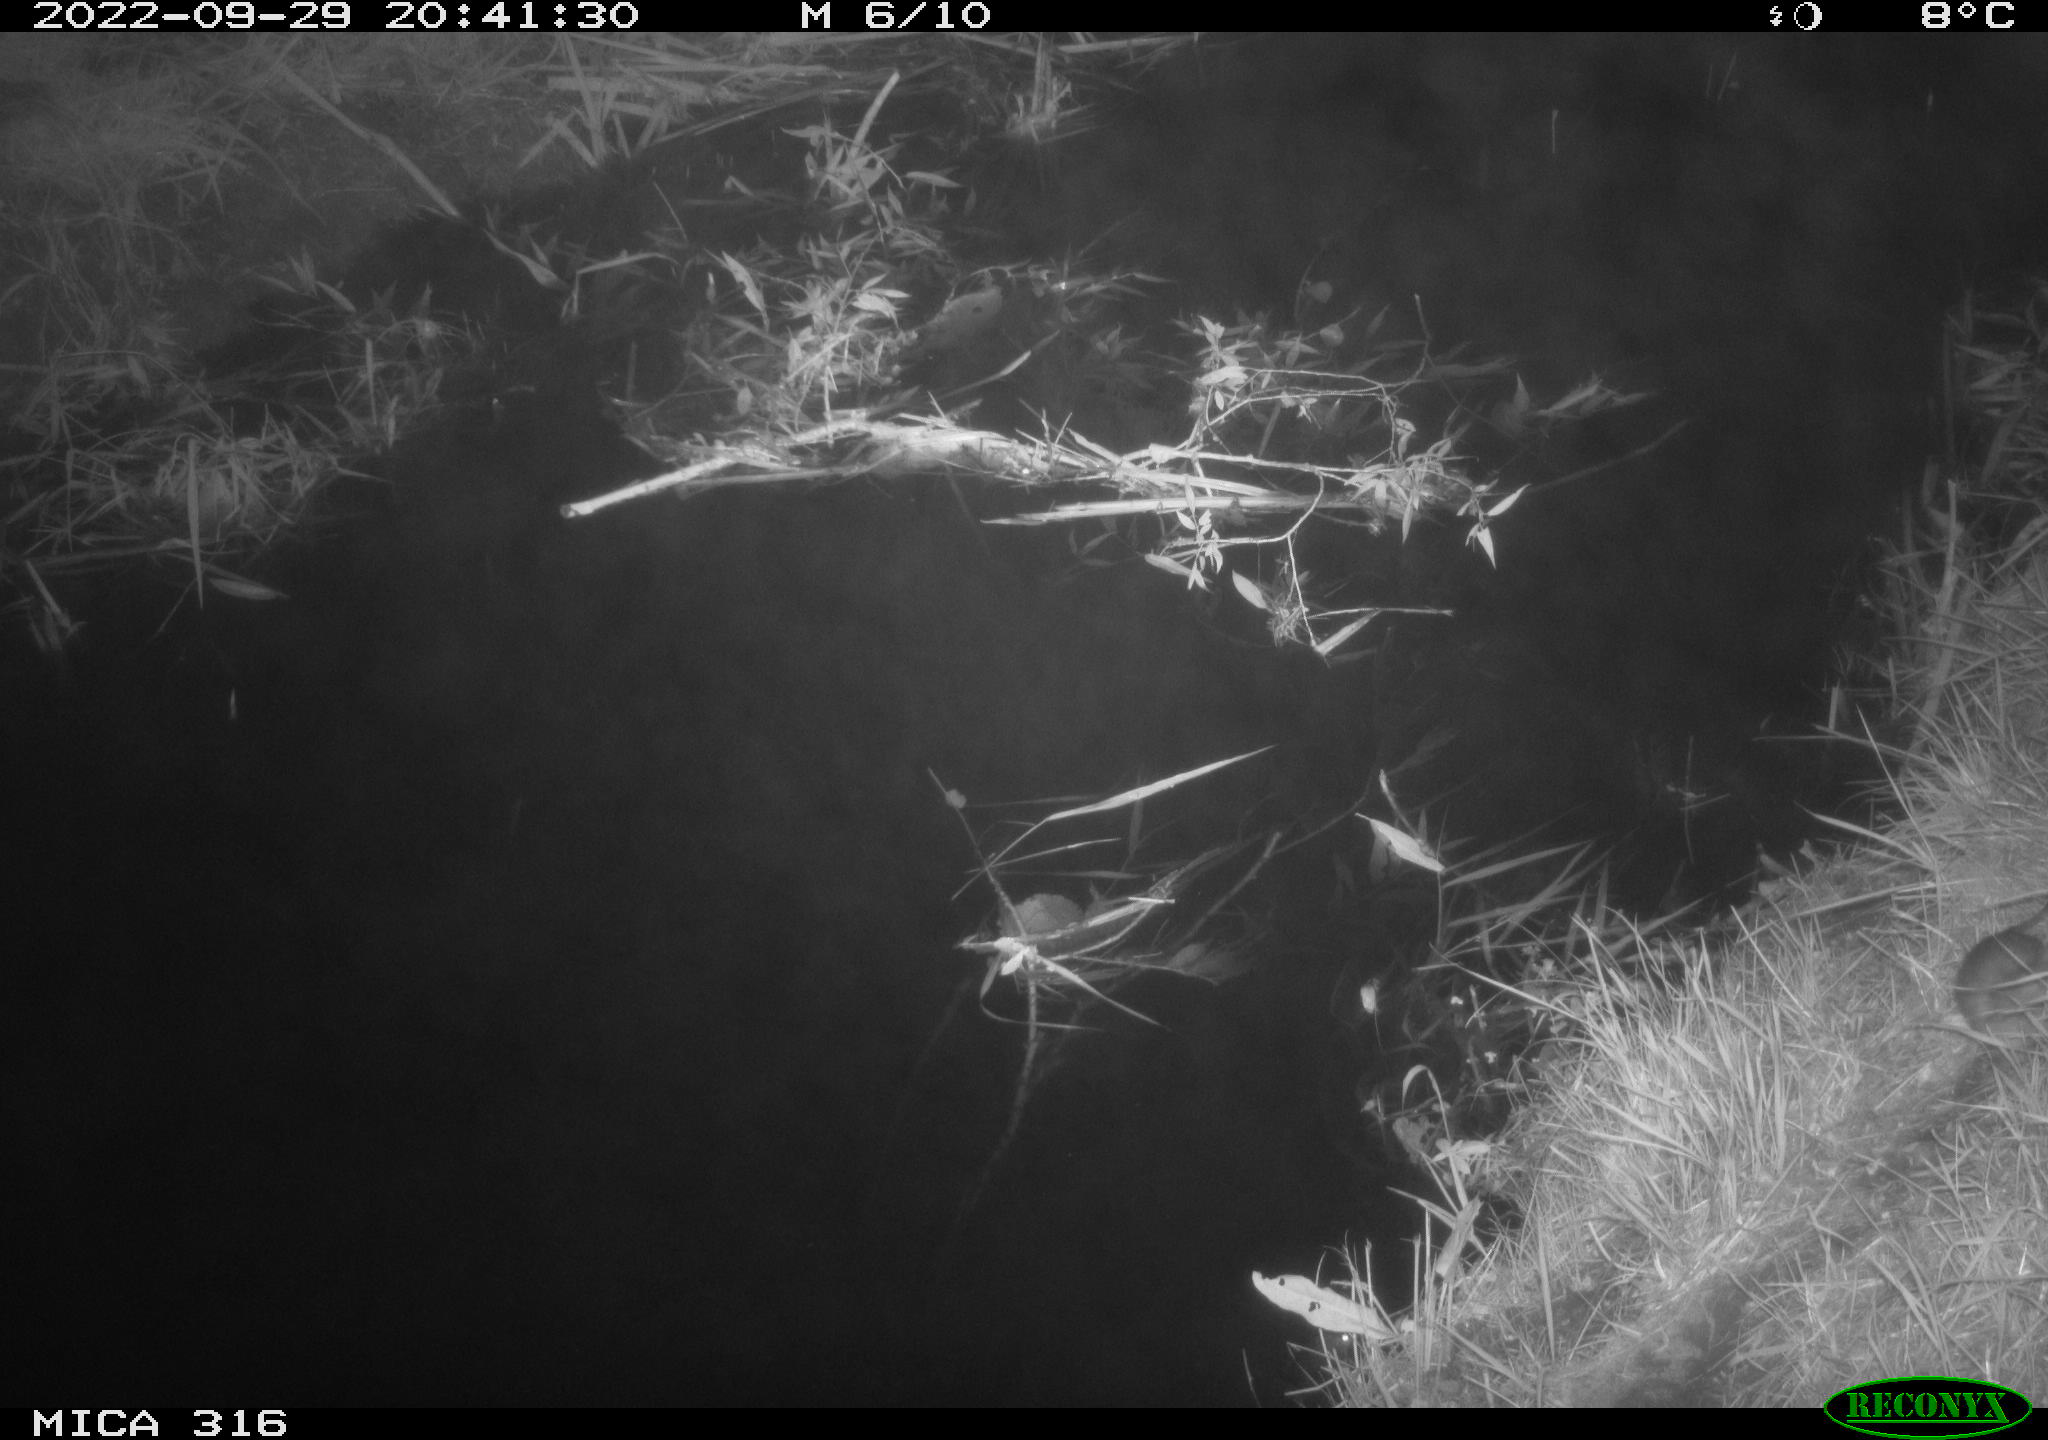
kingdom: Animalia
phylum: Chordata
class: Mammalia
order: Rodentia
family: Muridae
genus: Rattus
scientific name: Rattus norvegicus
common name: Brown rat
